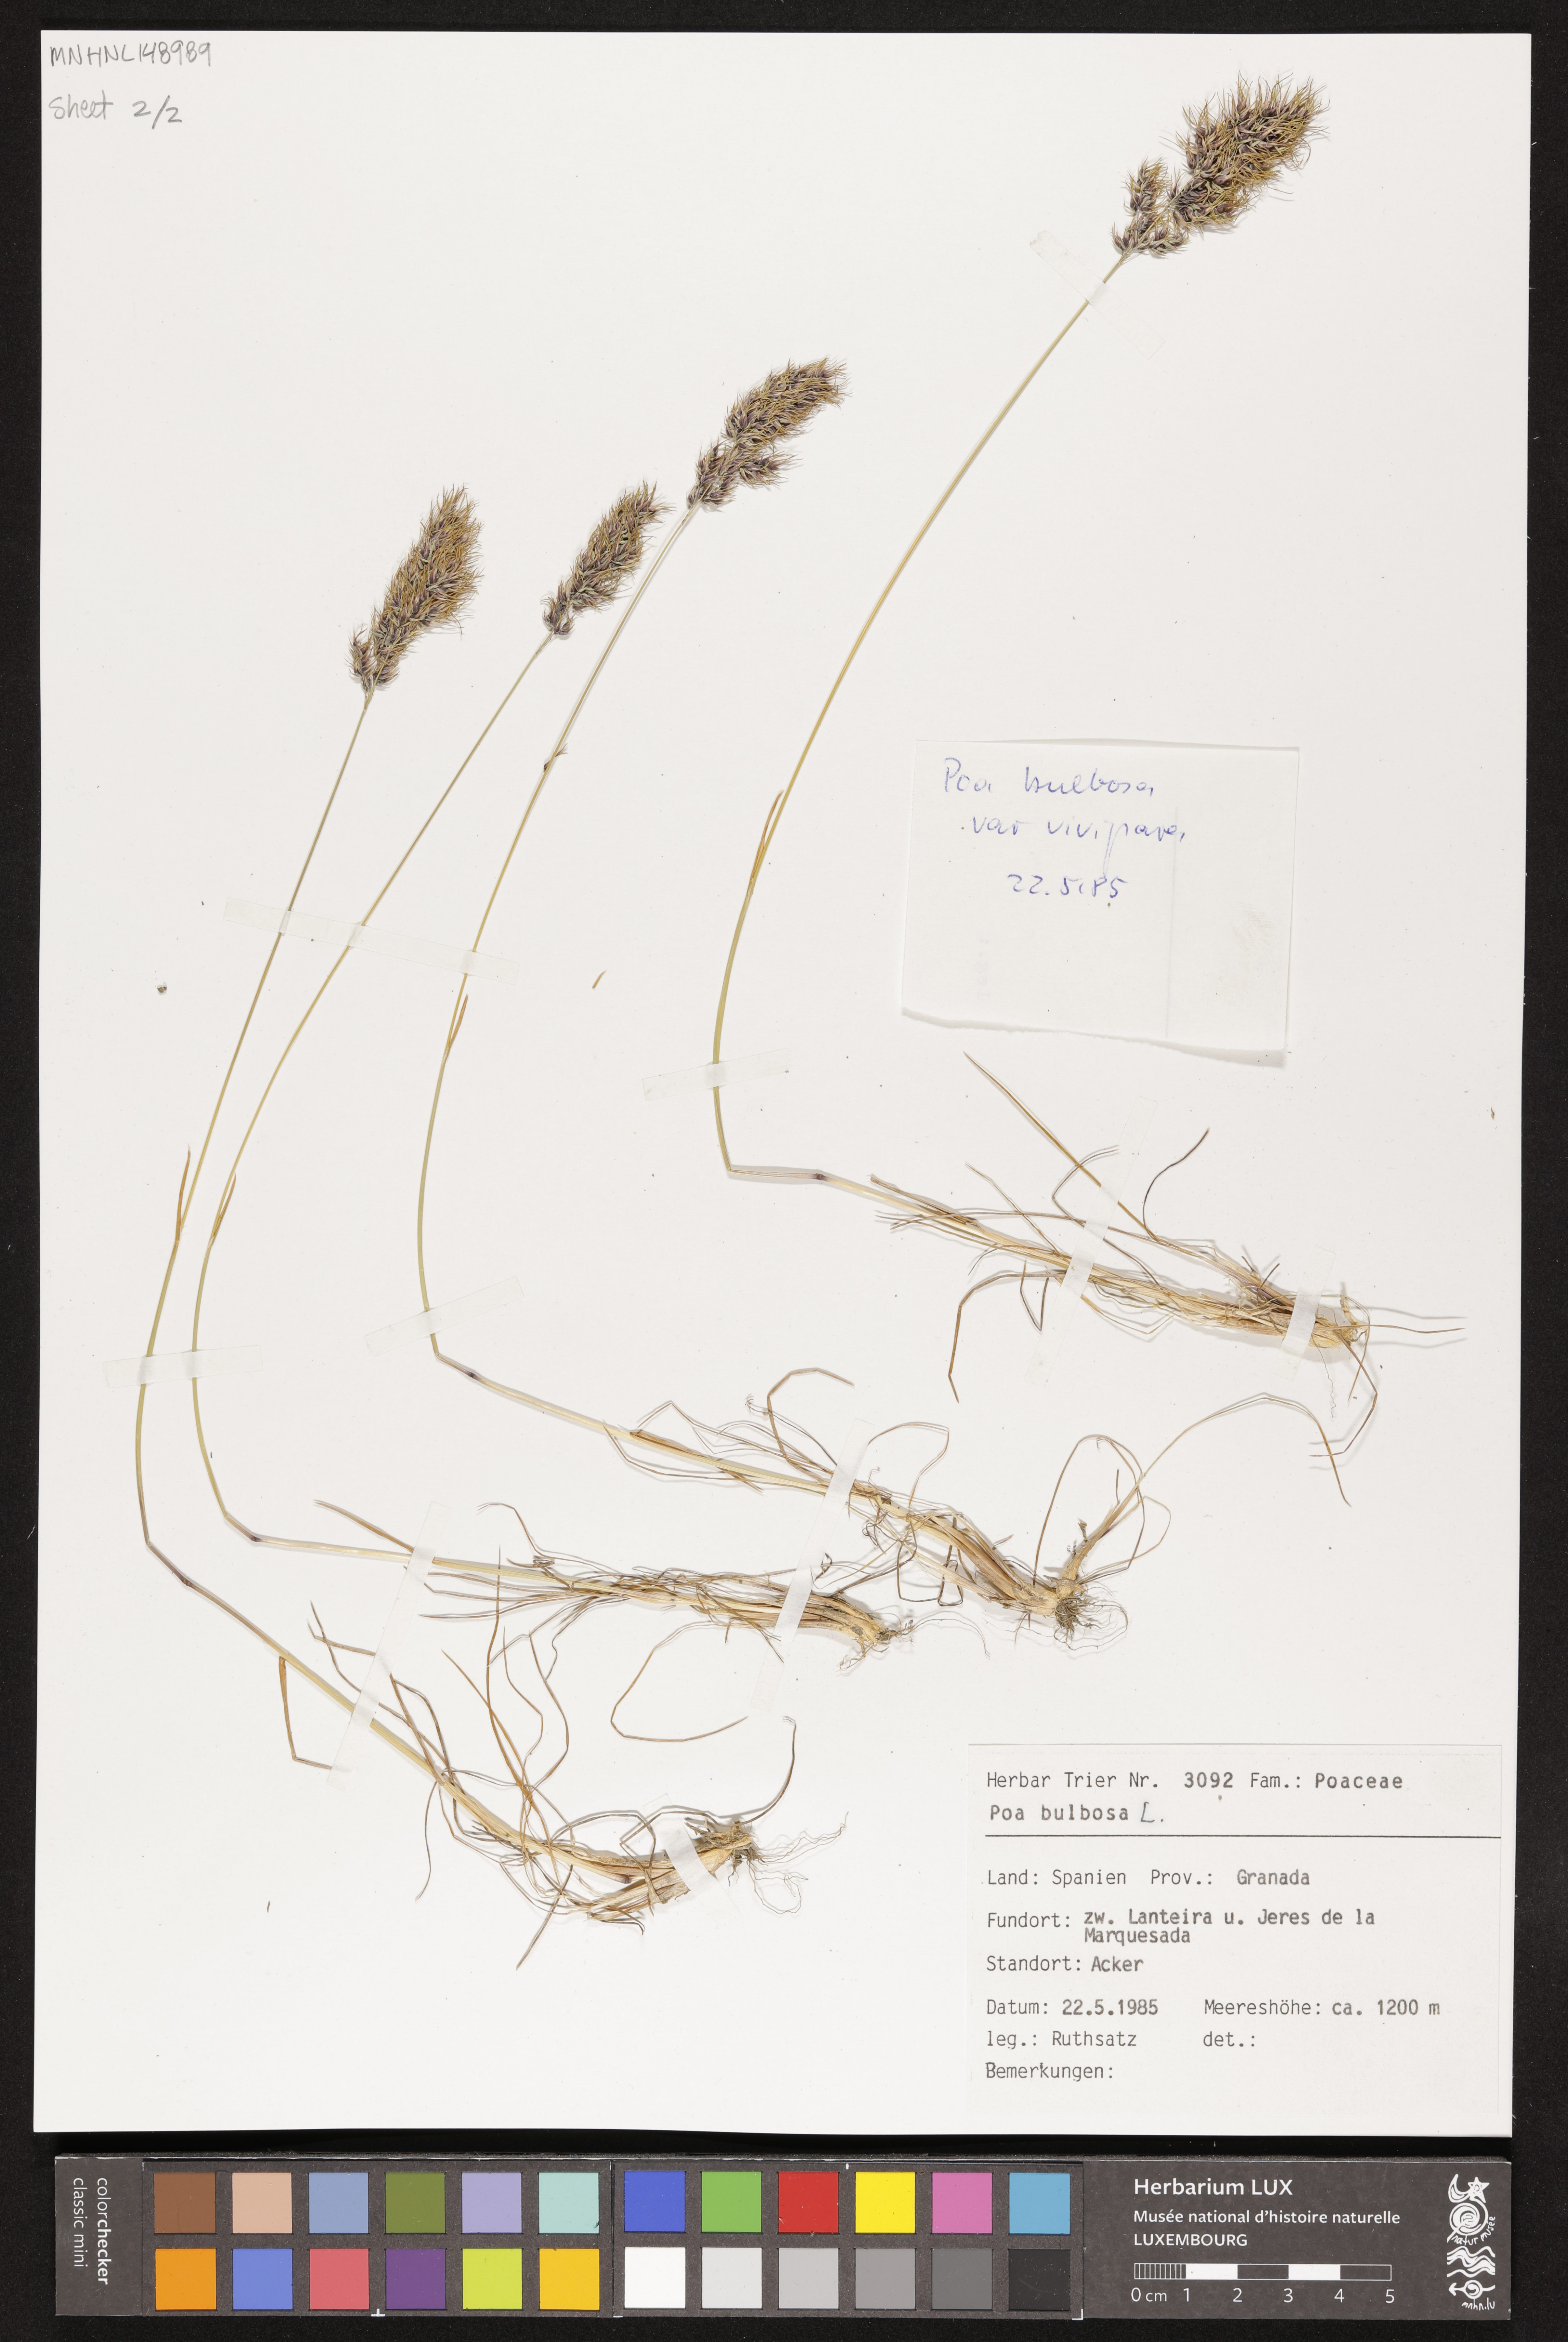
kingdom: Plantae
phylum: Tracheophyta
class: Liliopsida
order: Poales
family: Poaceae
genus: Poa
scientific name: Poa bulbosa
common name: Bulbous bluegrass
